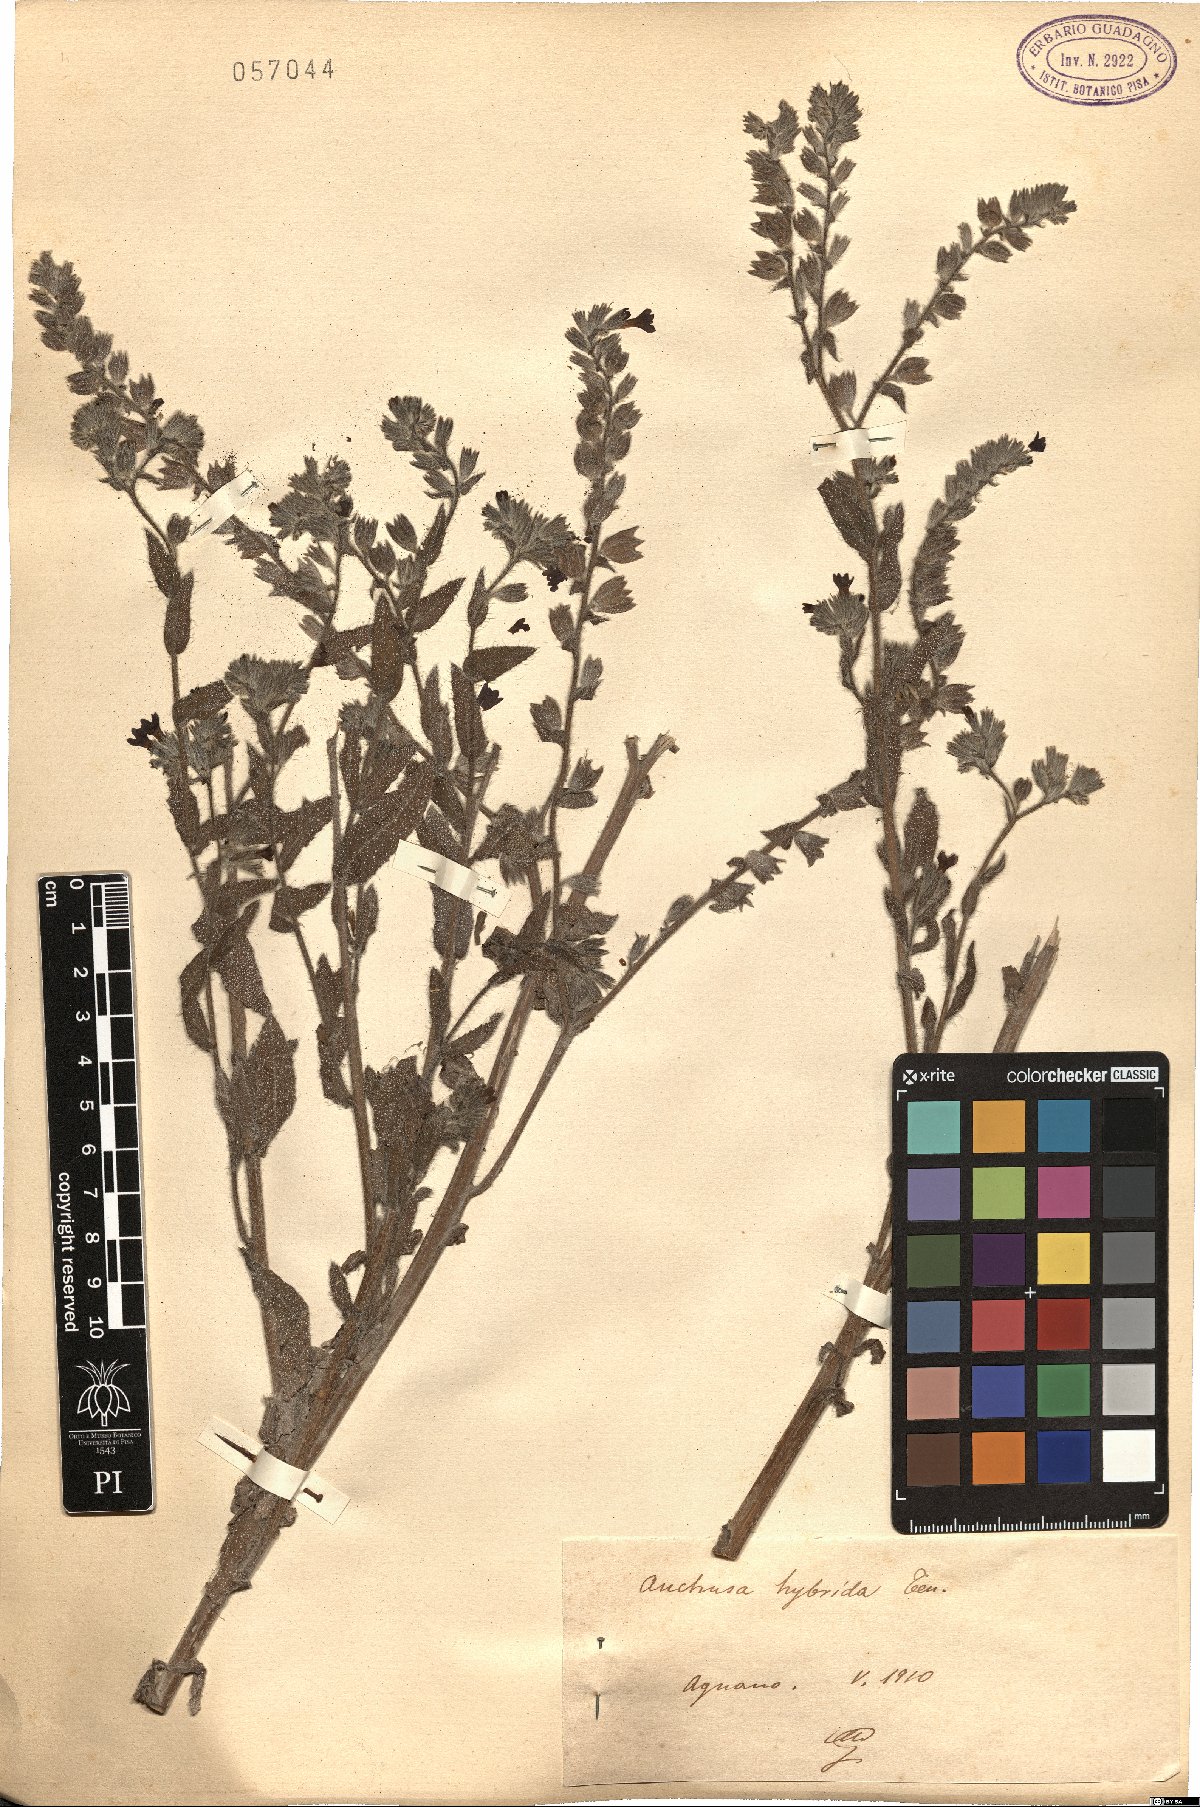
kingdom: Plantae
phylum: Tracheophyta
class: Magnoliopsida
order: Boraginales
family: Boraginaceae
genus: Anchusa
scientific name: Anchusa hybrida
